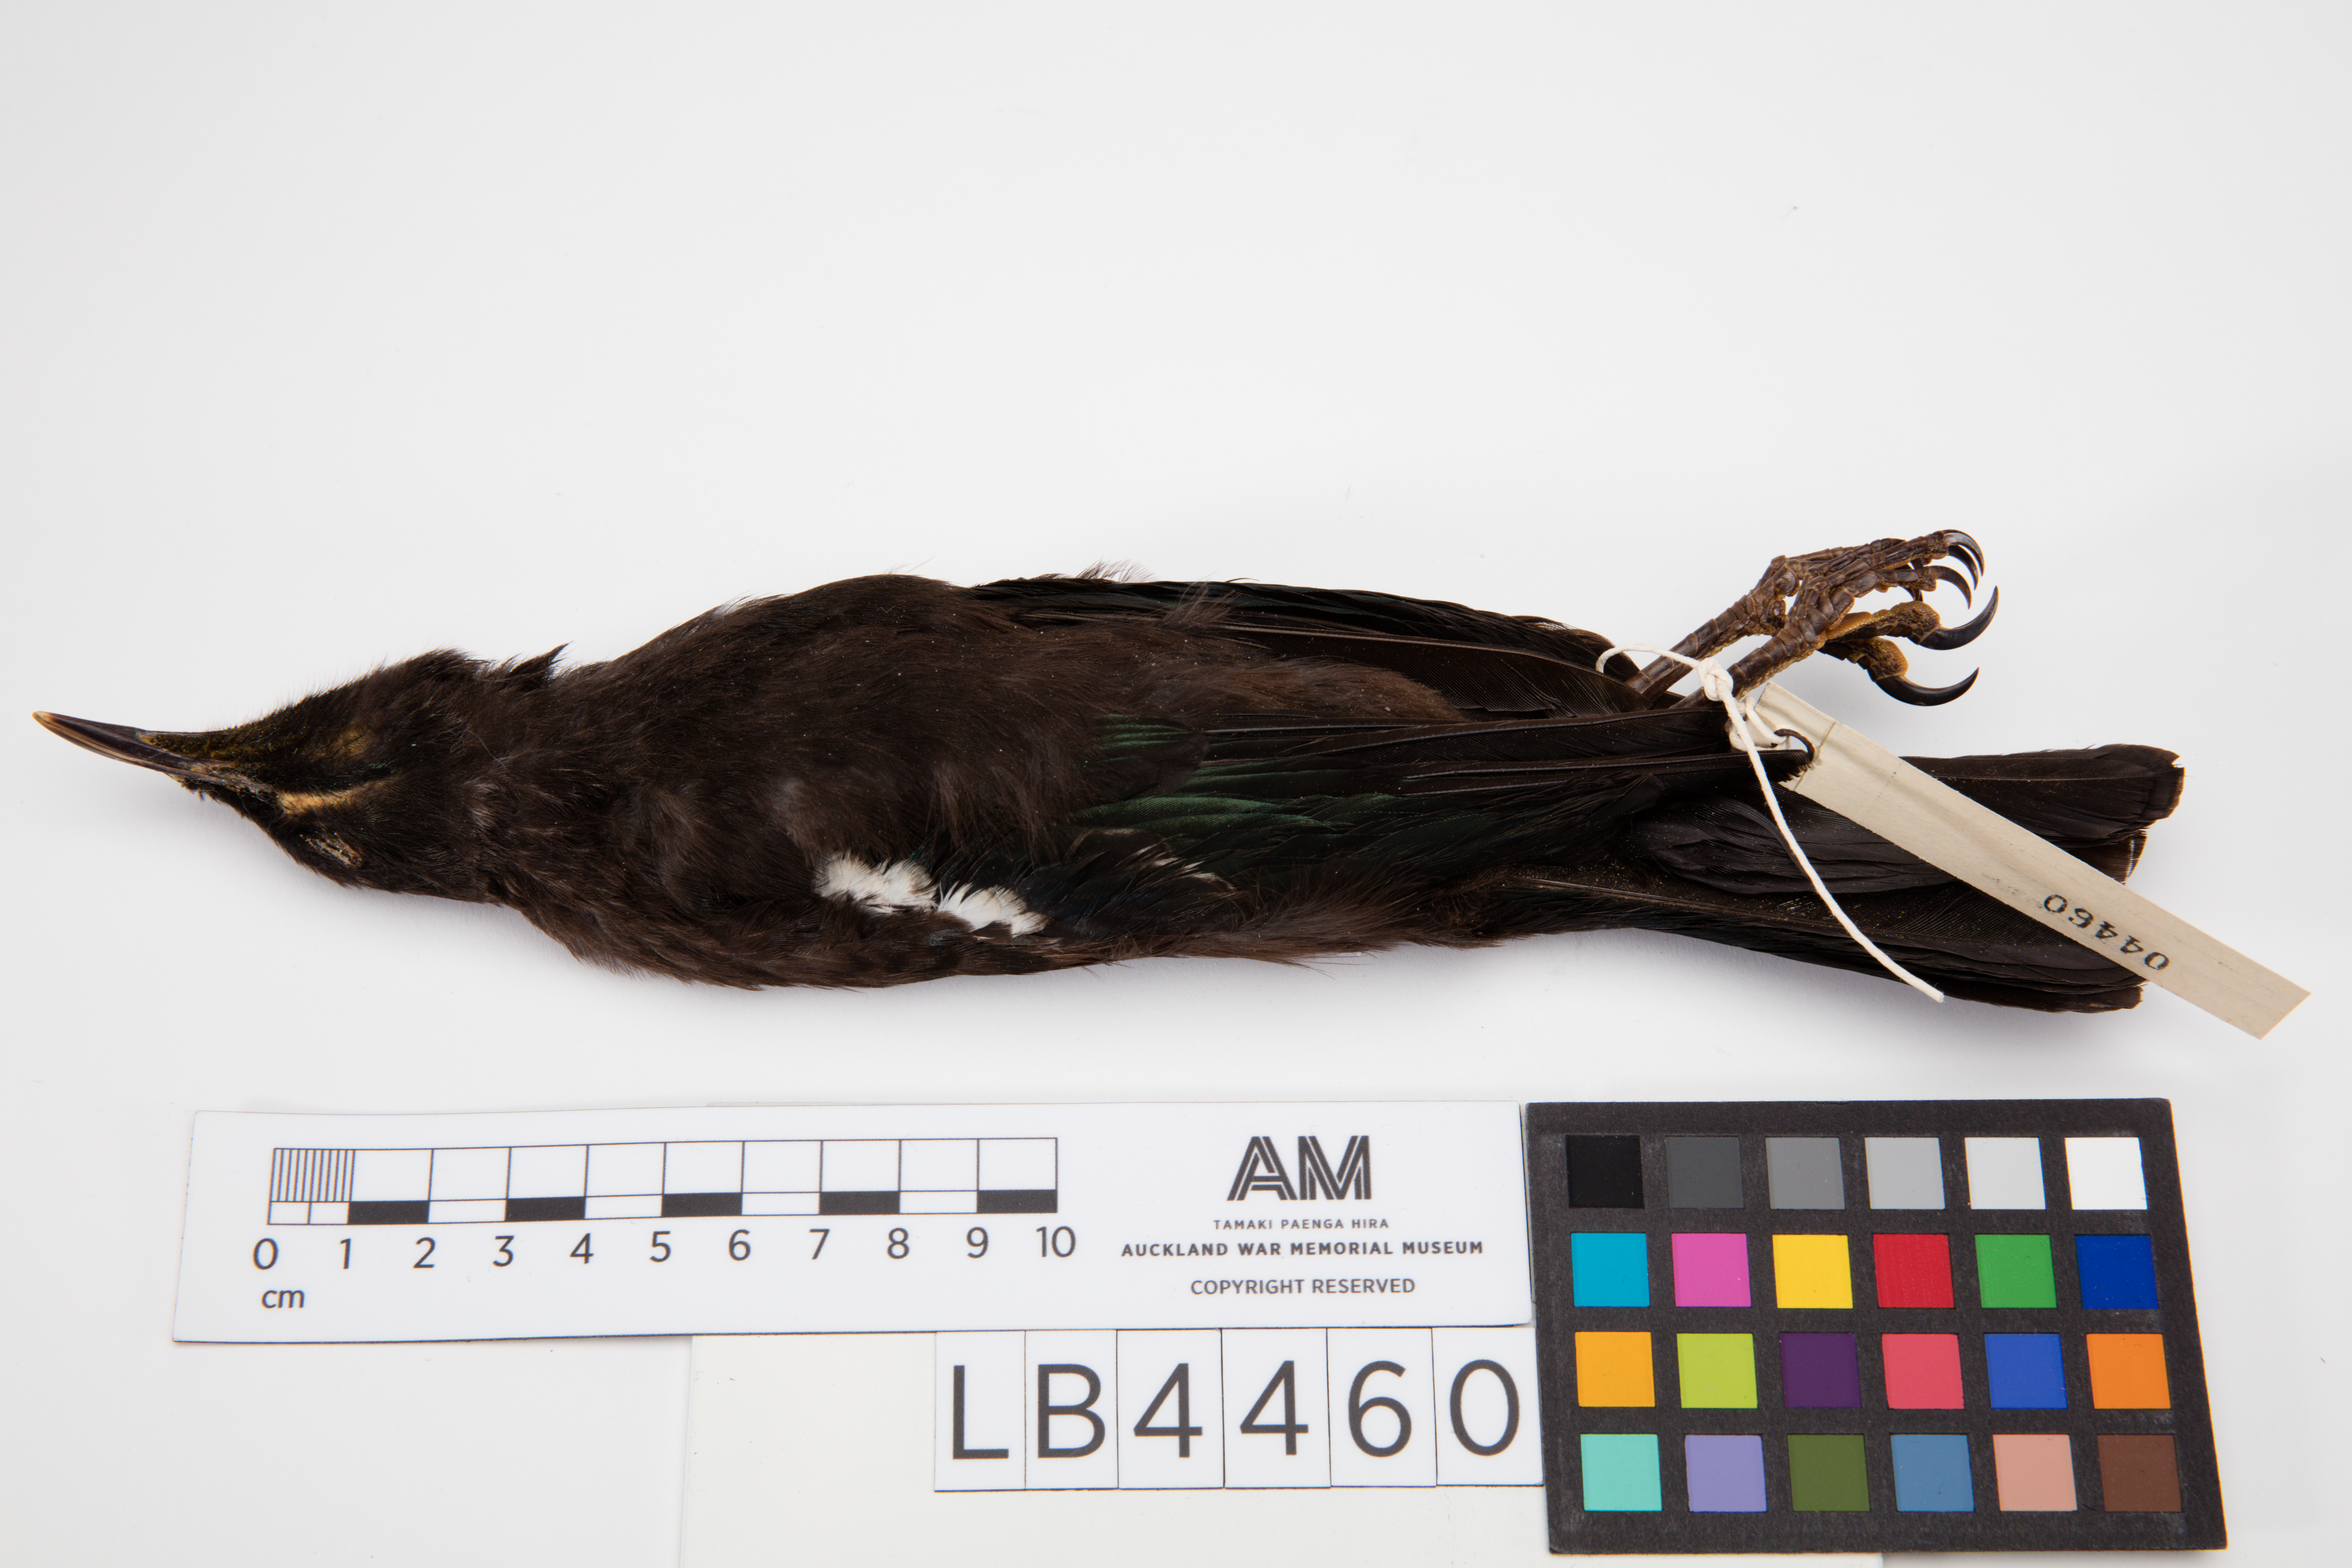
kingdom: Animalia
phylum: Chordata
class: Aves
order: Passeriformes
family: Meliphagidae
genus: Prosthemadera
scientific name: Prosthemadera novaeseelandiae
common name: Tui
